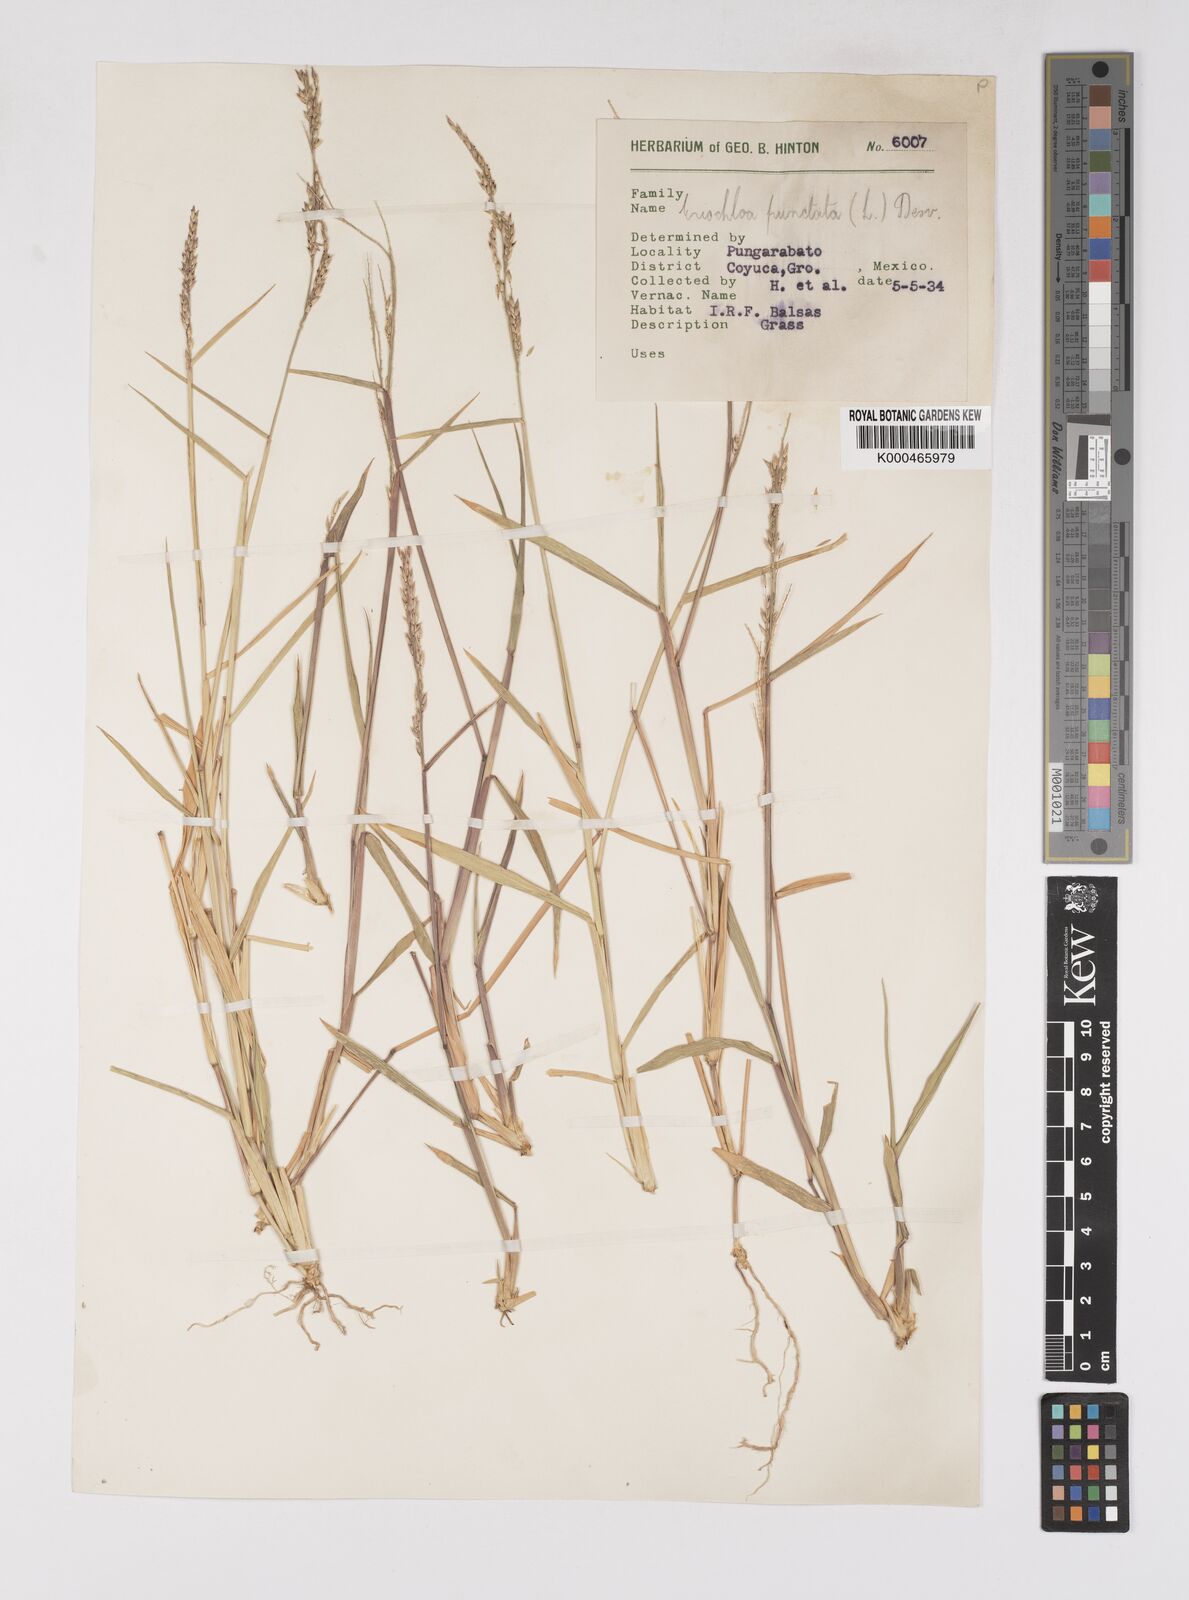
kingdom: Plantae
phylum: Tracheophyta
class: Liliopsida
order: Poales
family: Poaceae
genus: Eriochloa
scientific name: Eriochloa punctata
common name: Louisiana cupgrass
